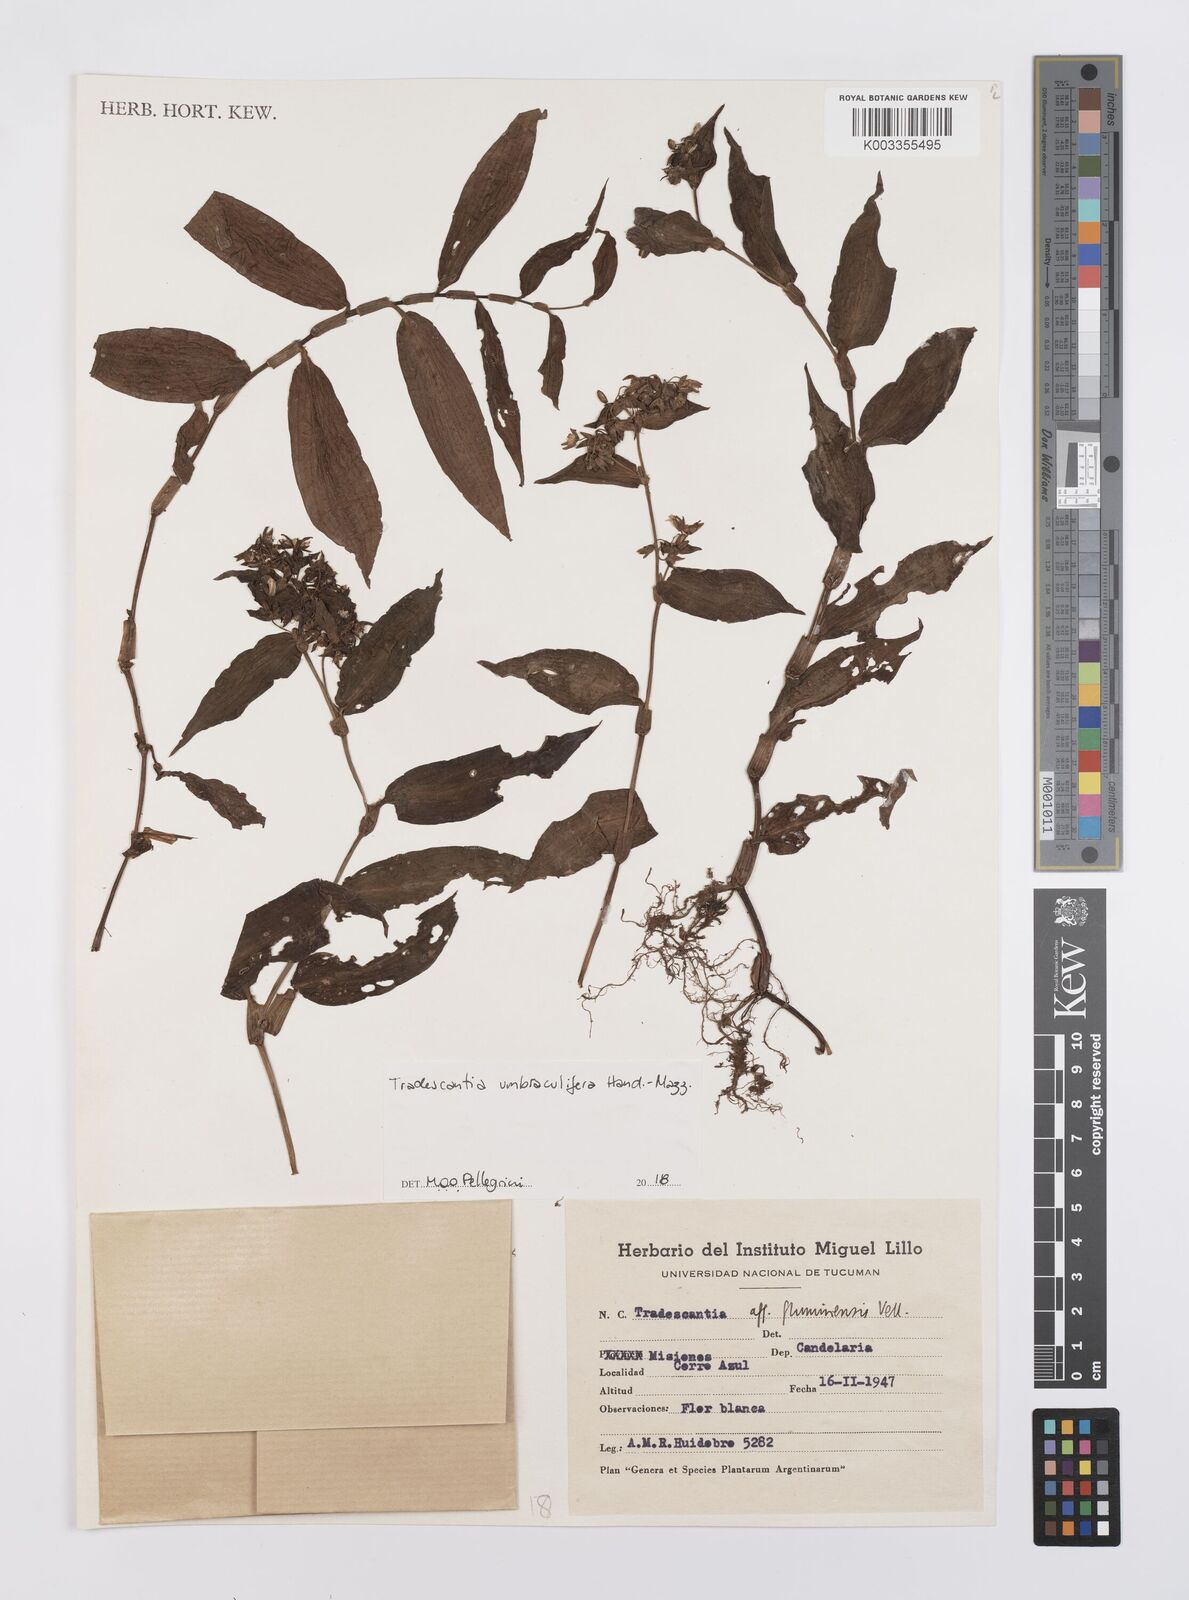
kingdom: Plantae
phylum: Tracheophyta
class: Liliopsida
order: Commelinales
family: Commelinaceae
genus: Tradescantia
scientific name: Tradescantia umbraculifera
